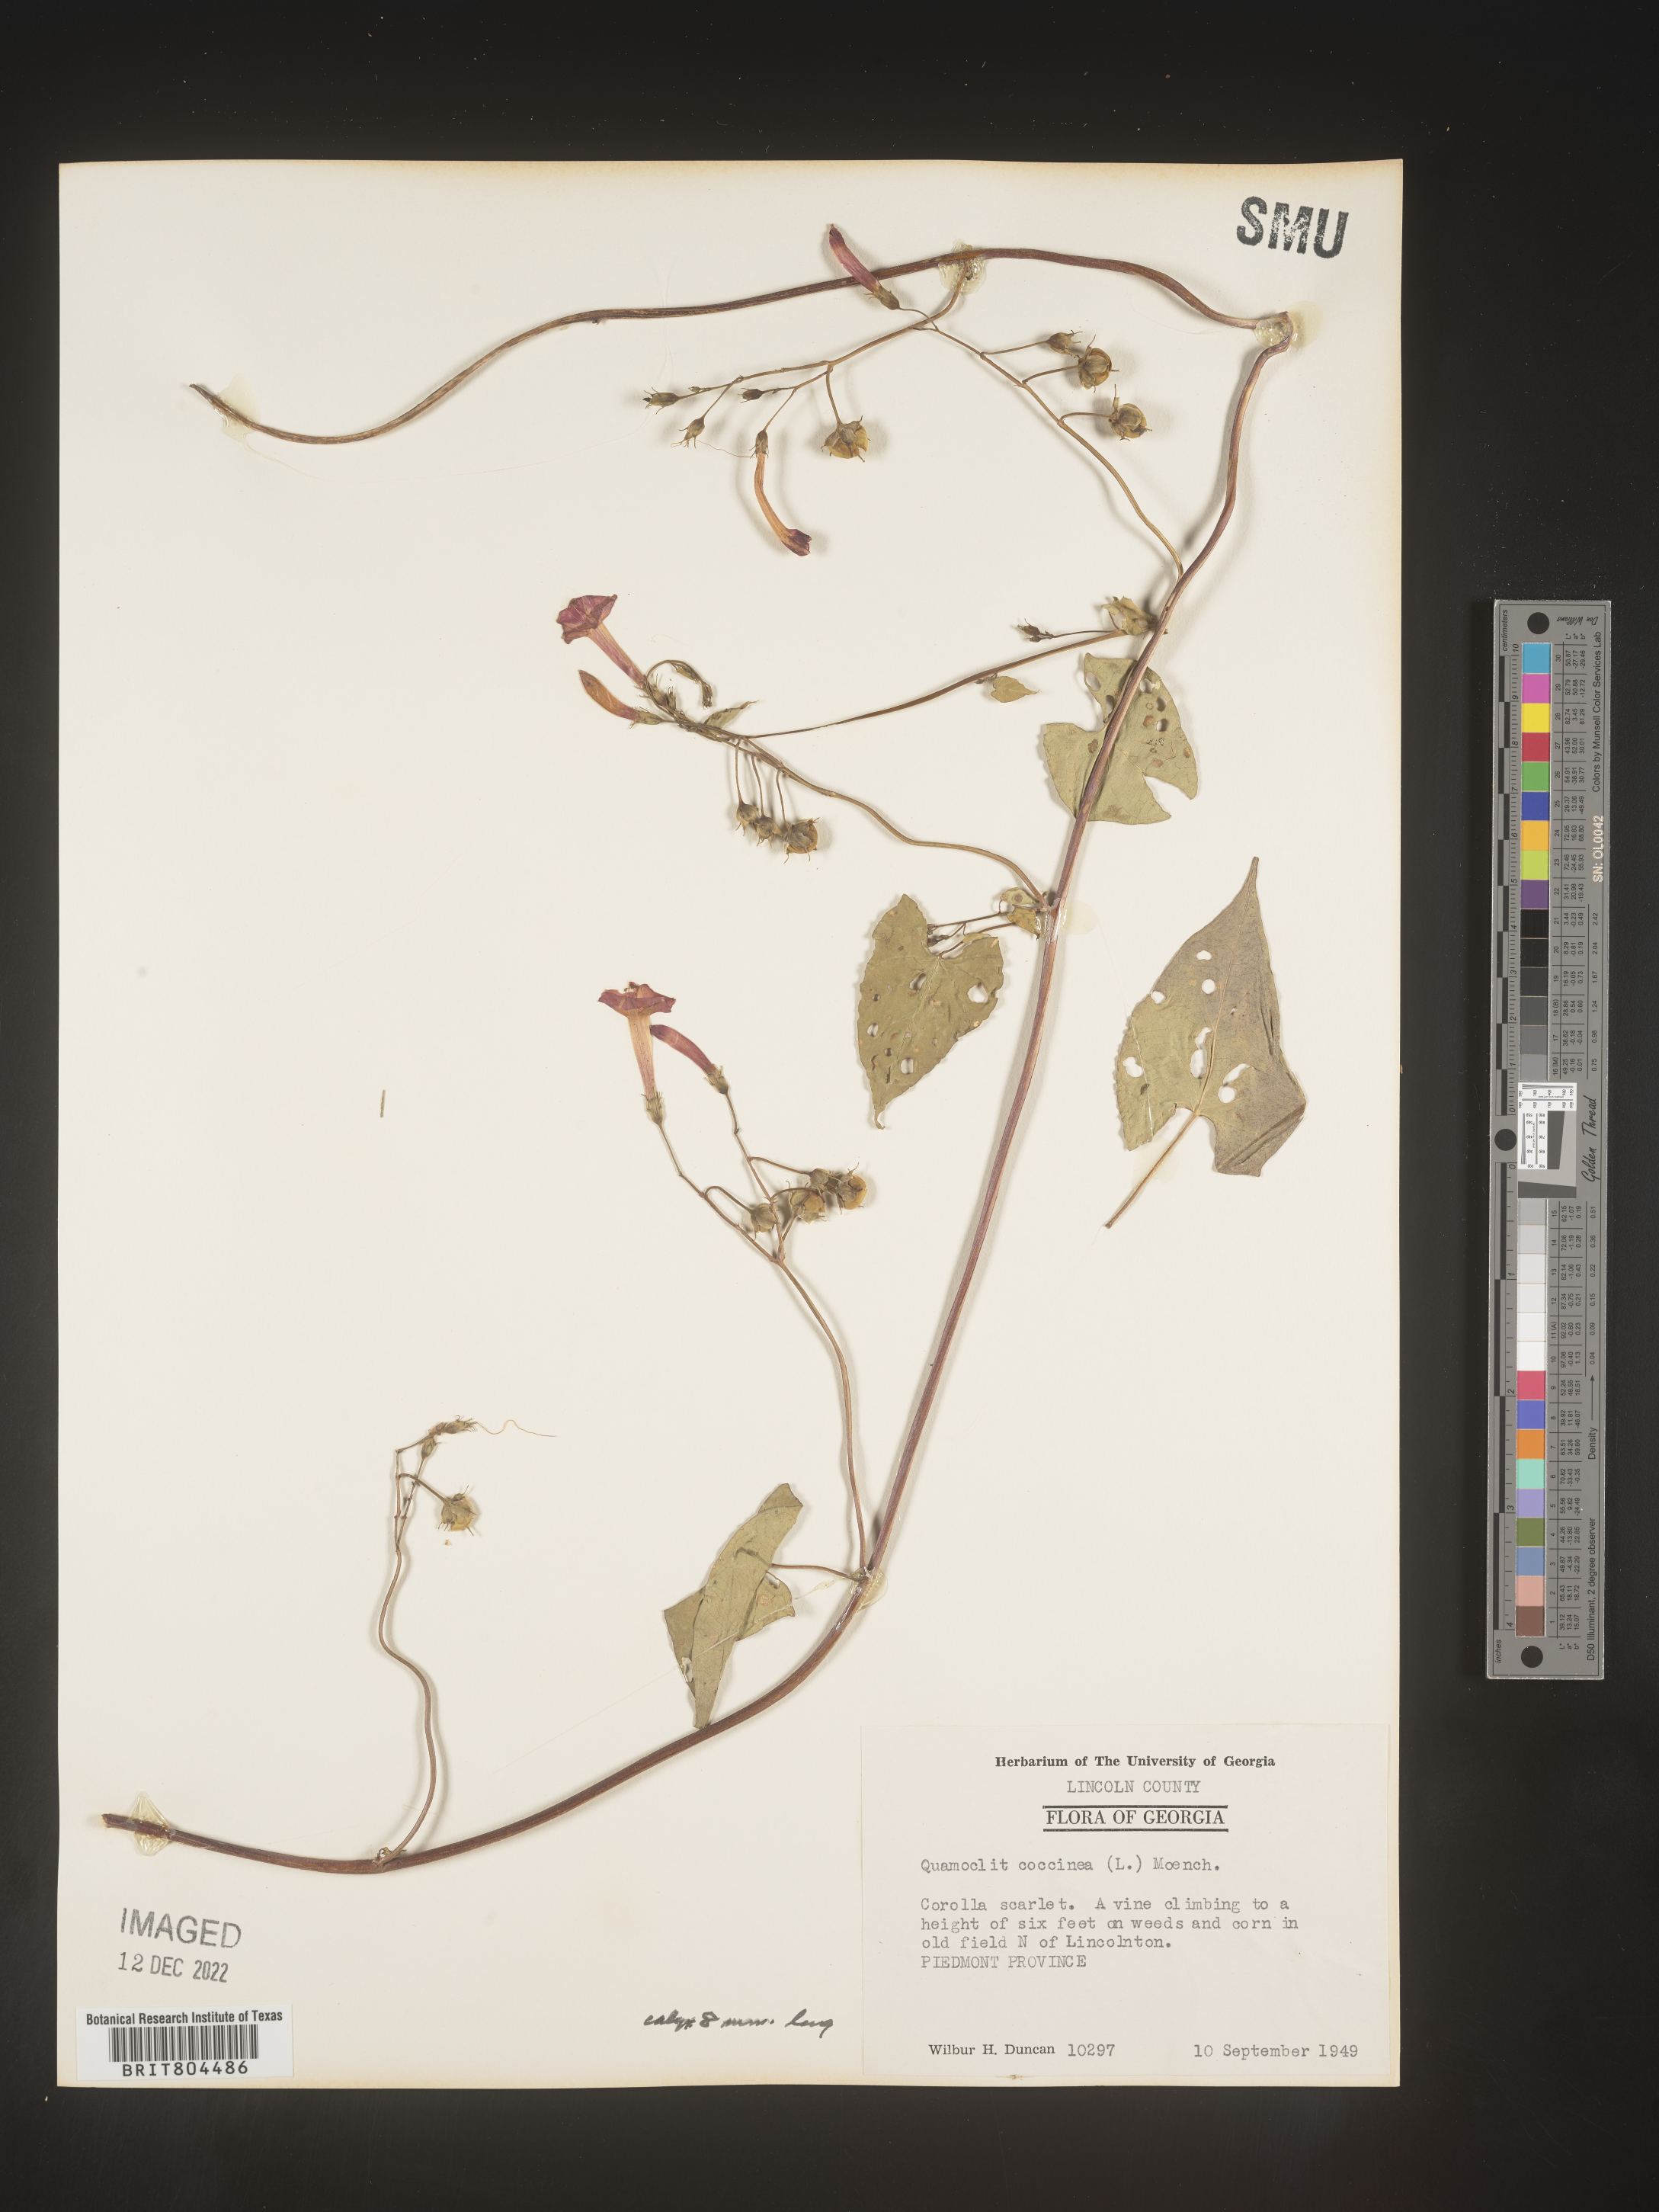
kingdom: Plantae
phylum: Tracheophyta
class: Magnoliopsida
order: Solanales
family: Convolvulaceae
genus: Ipomoea
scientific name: Ipomoea coccinea
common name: Red morning-glory
